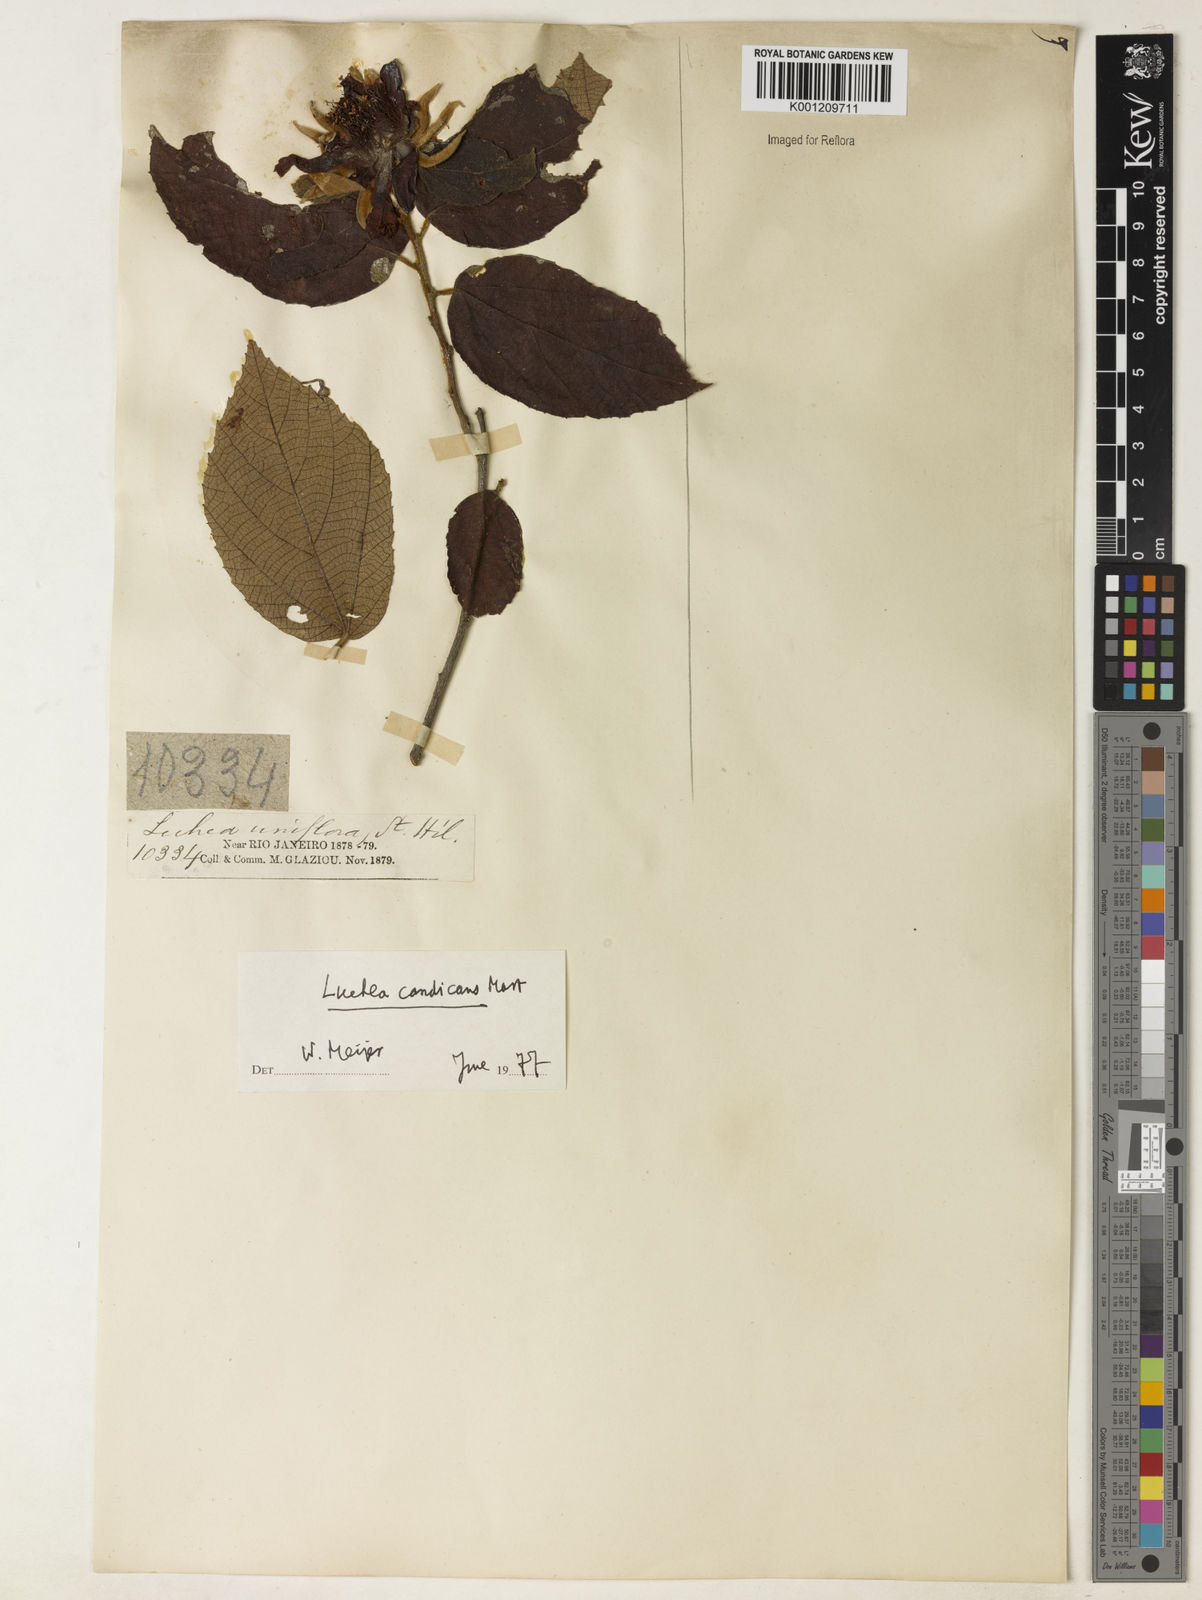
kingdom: Plantae
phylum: Tracheophyta
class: Magnoliopsida
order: Malvales
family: Malvaceae
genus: Luehea
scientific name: Luehea candicans
